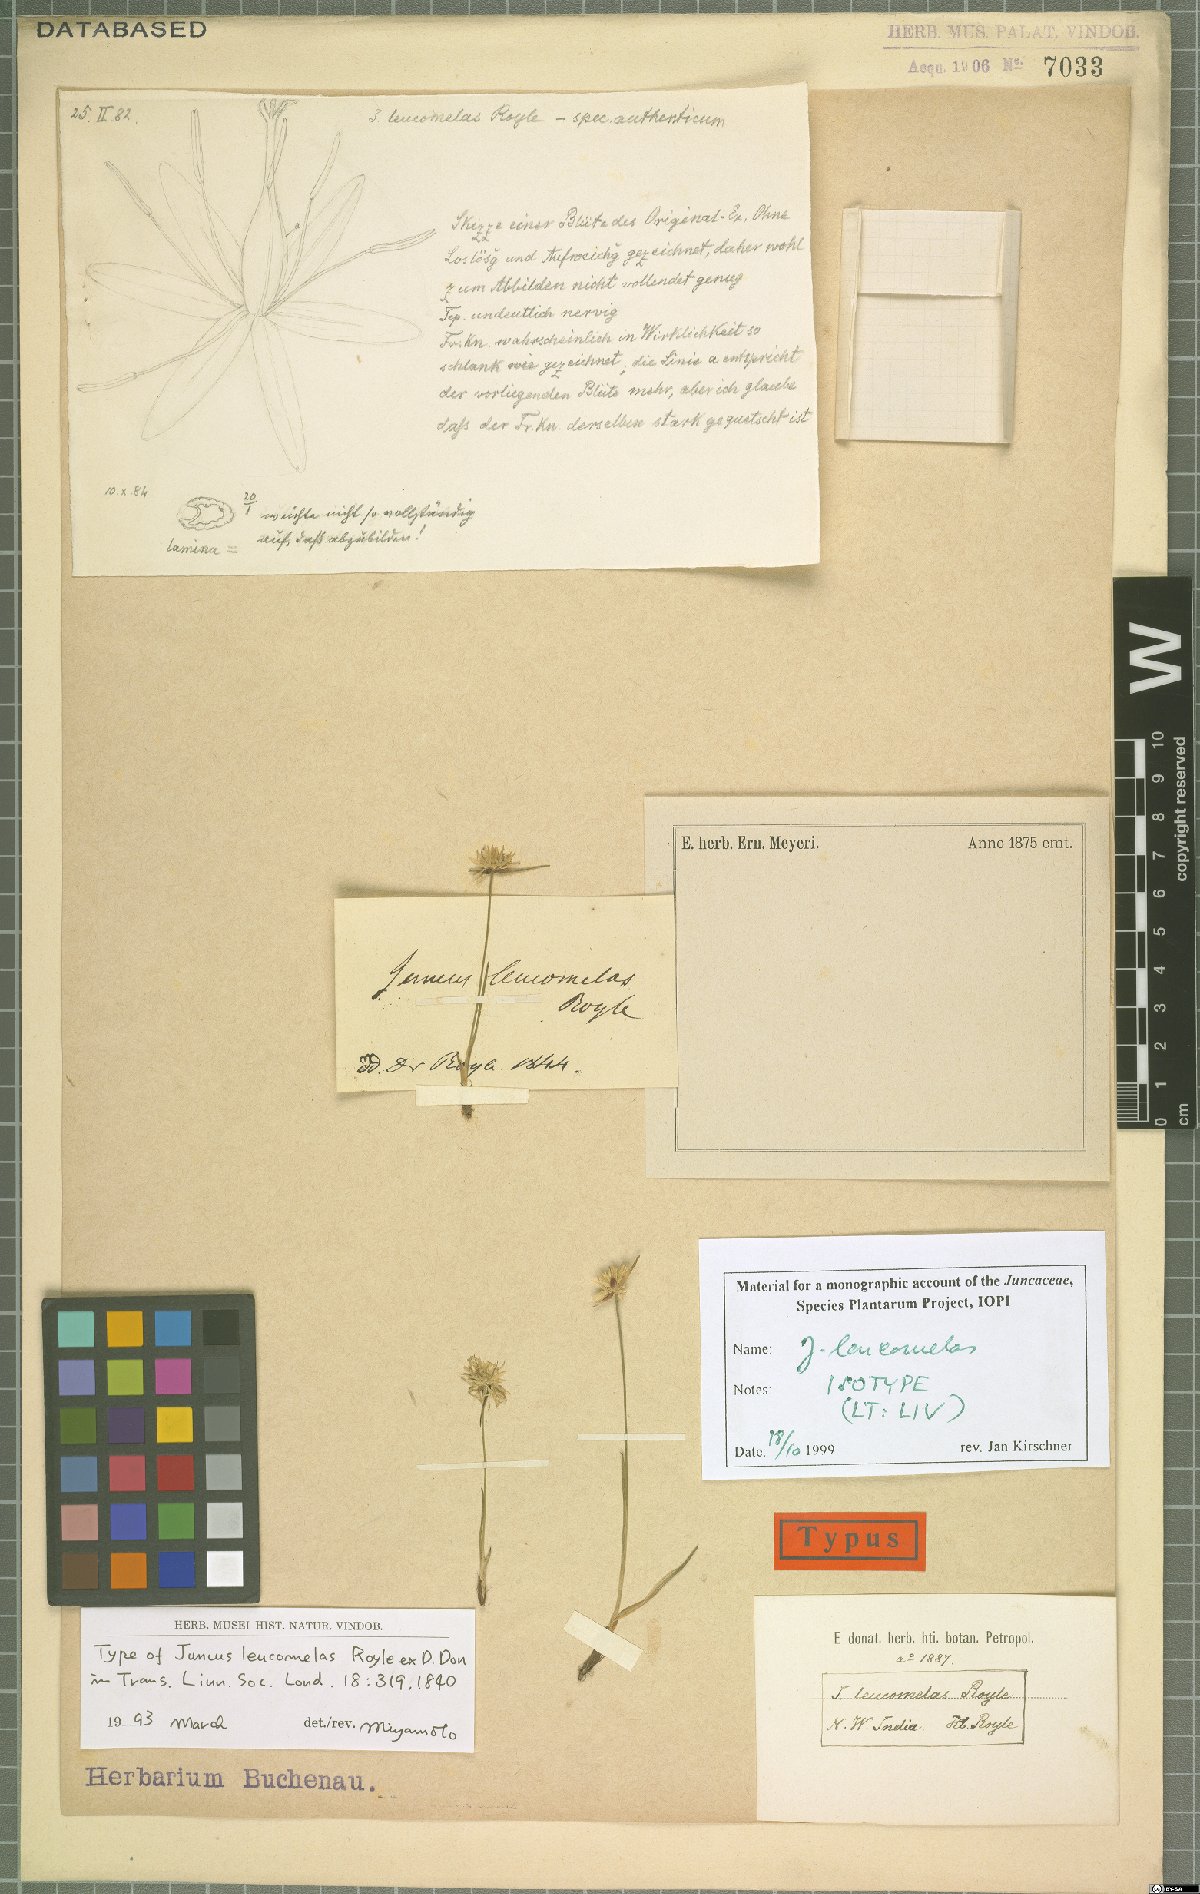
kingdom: Plantae
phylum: Tracheophyta
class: Liliopsida
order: Poales
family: Juncaceae
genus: Juncus
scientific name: Juncus leucomelas
